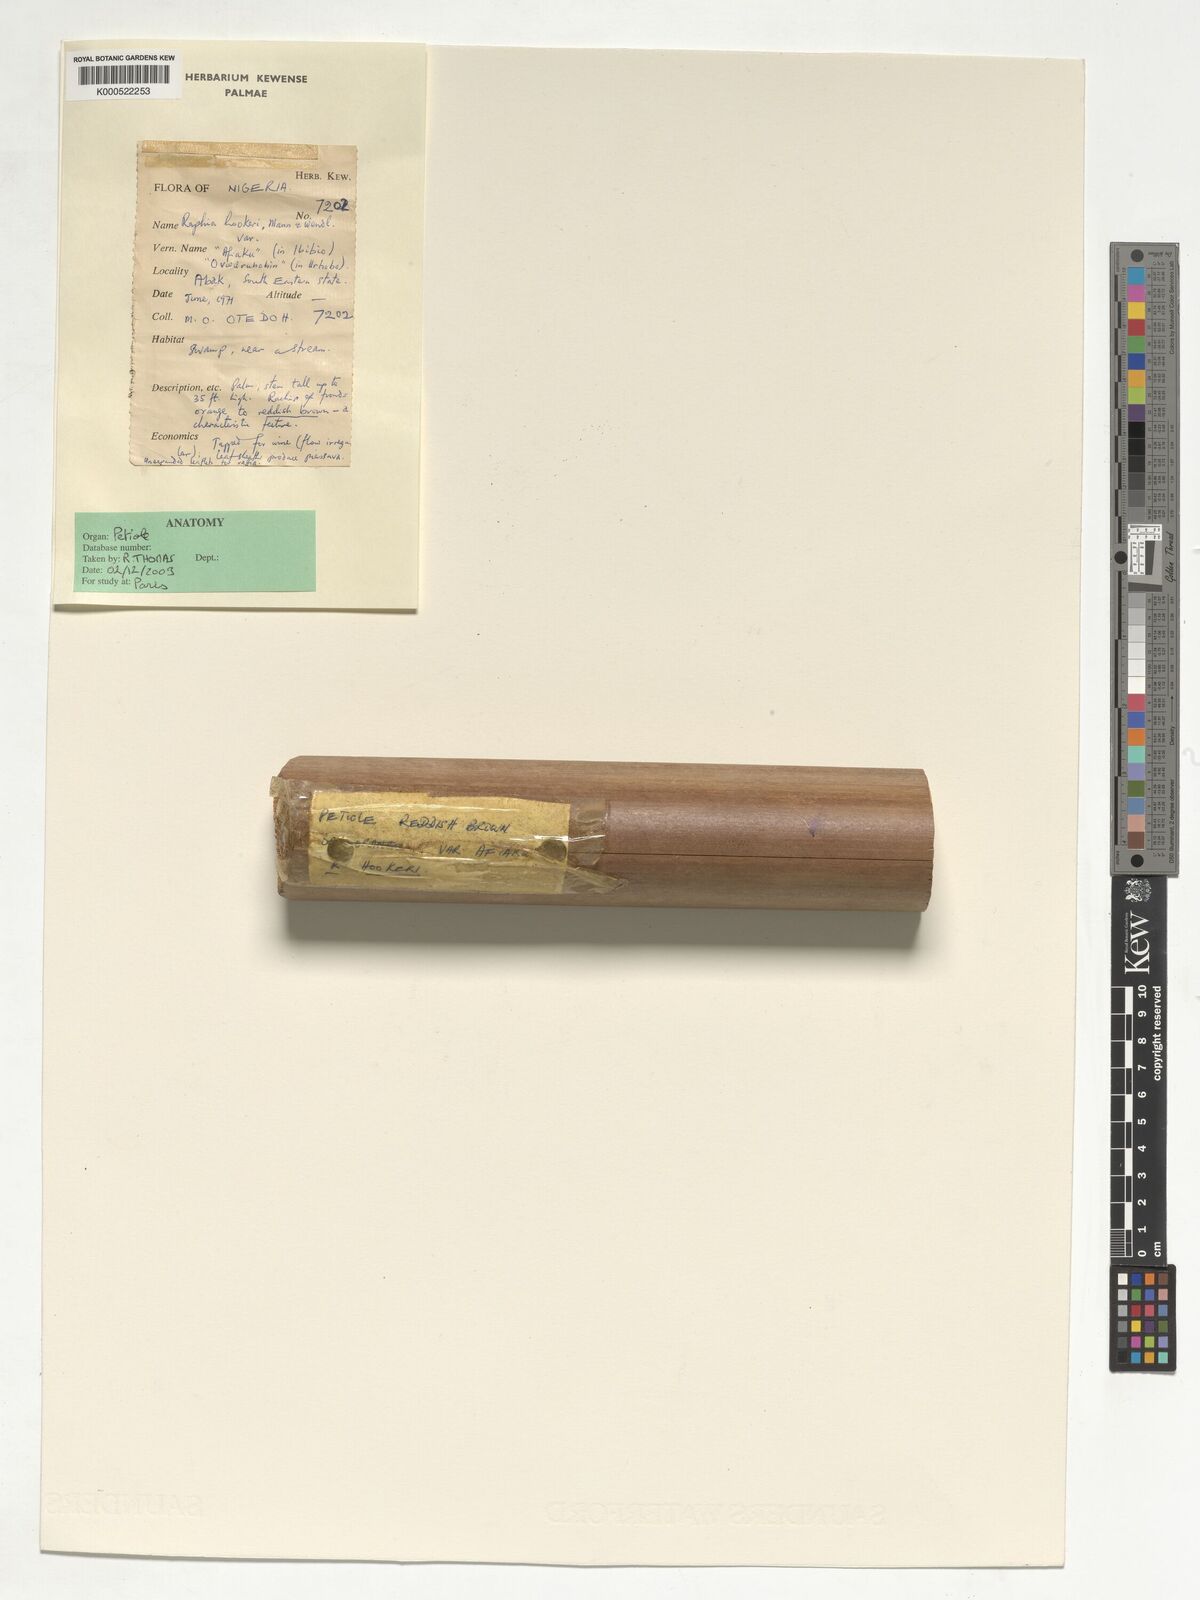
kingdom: Plantae
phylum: Tracheophyta
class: Liliopsida
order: Arecales
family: Arecaceae
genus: Raphia
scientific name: Raphia hookeri
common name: Wine palm
